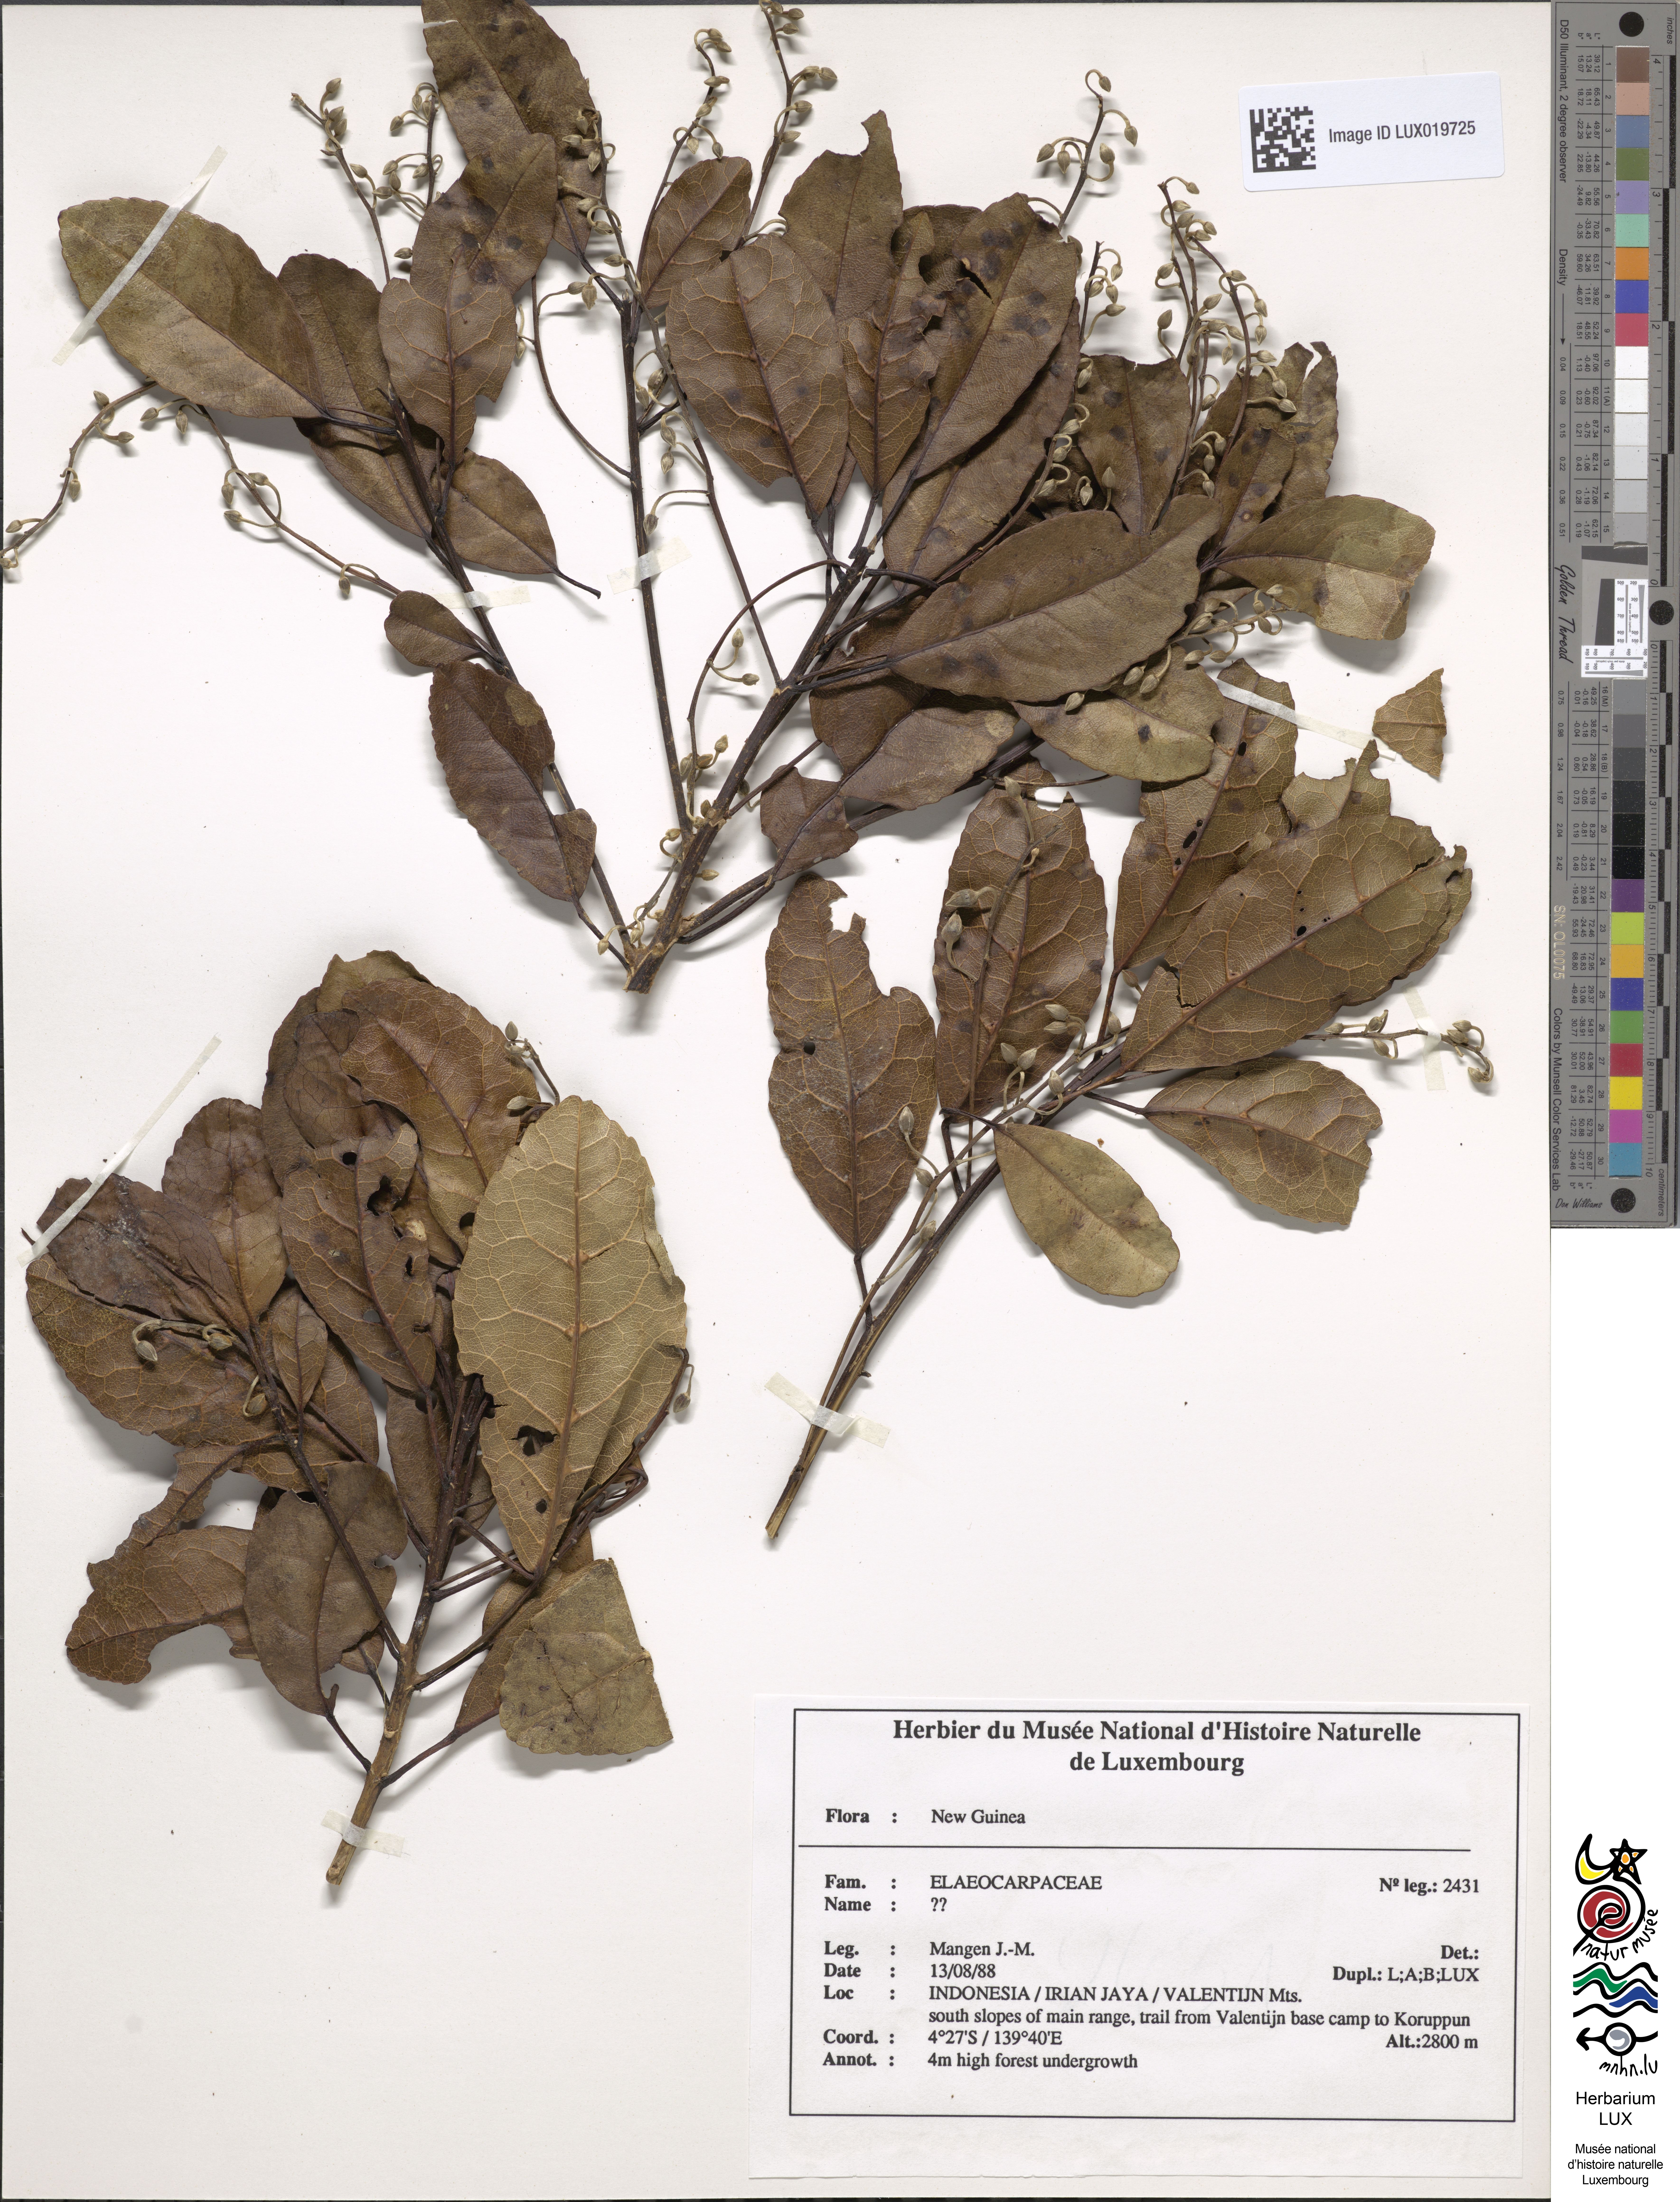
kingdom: Plantae
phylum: Tracheophyta
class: Magnoliopsida
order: Oxalidales
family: Elaeocarpaceae
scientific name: Elaeocarpaceae
